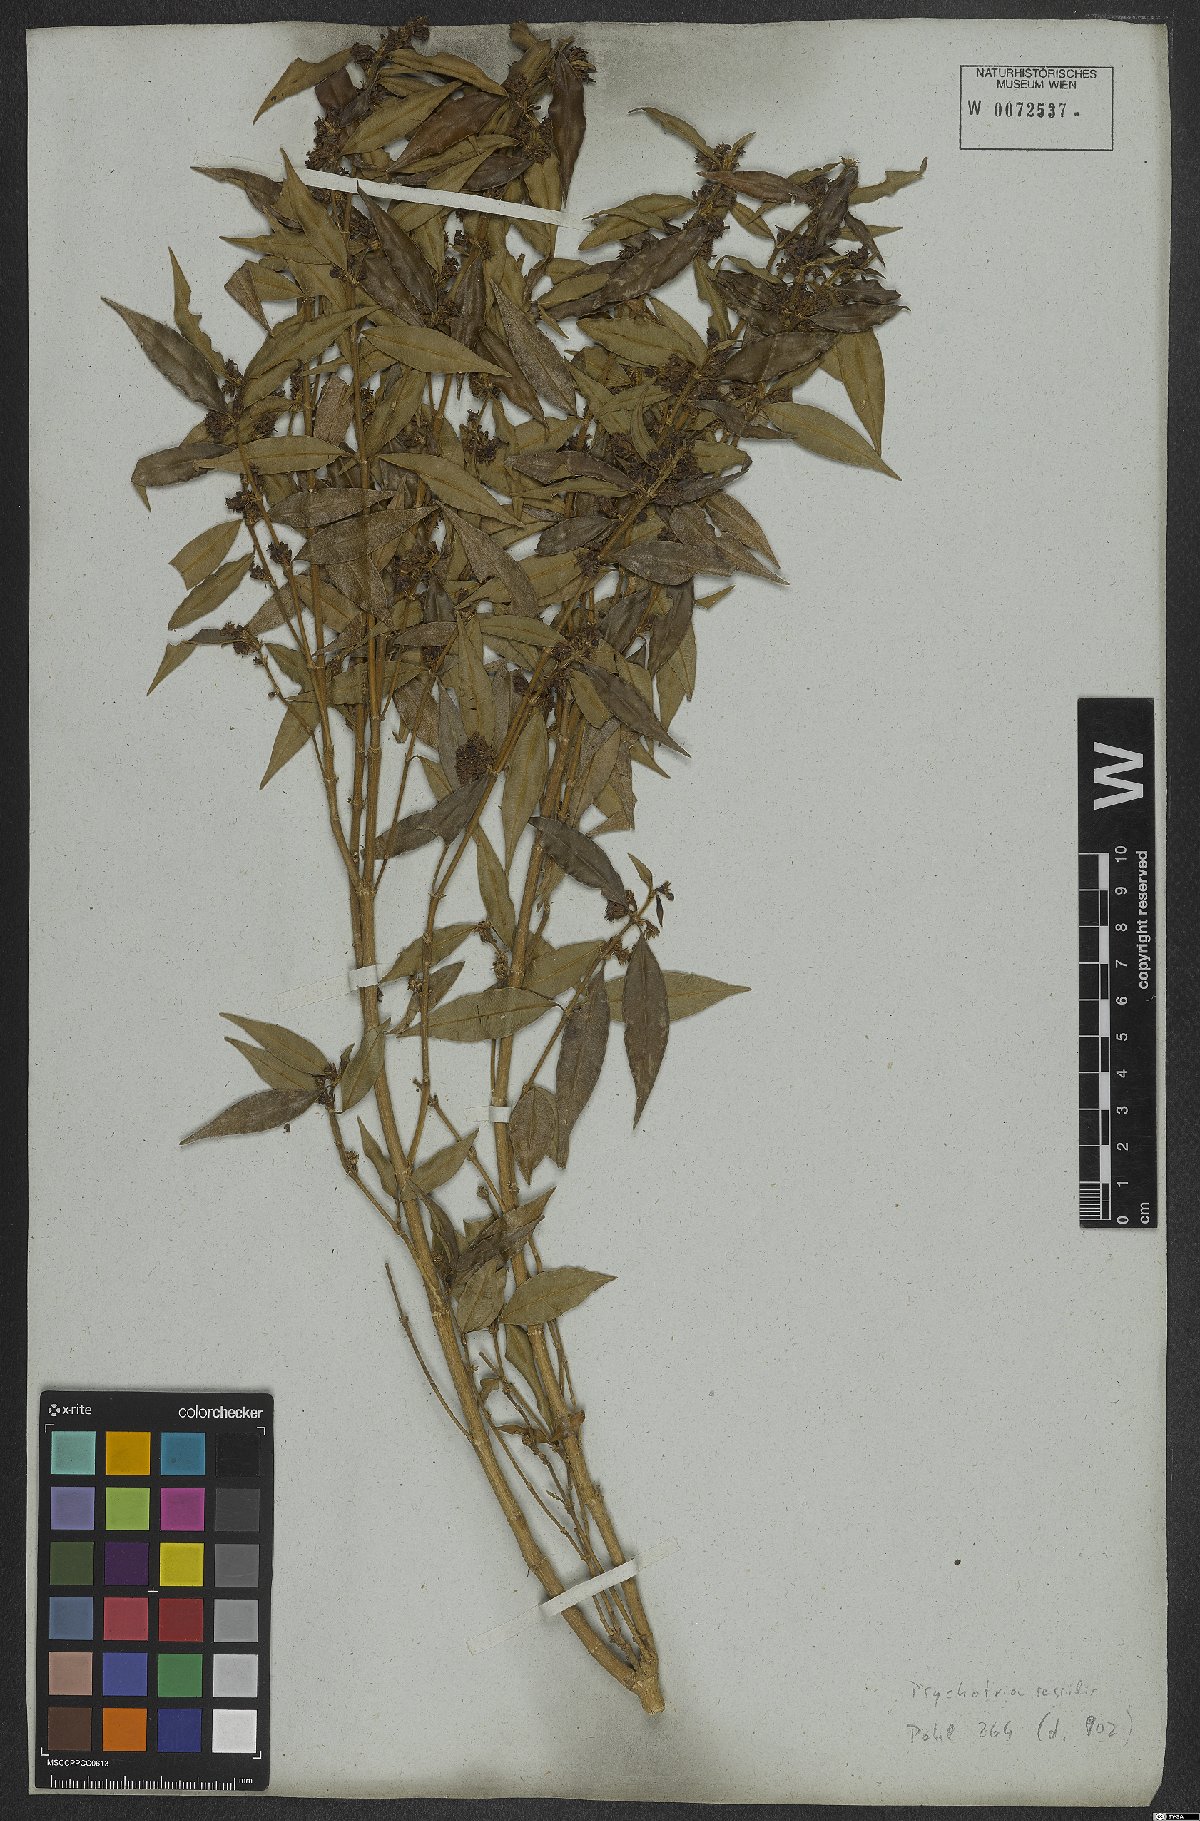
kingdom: Plantae
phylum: Tracheophyta
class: Magnoliopsida
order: Gentianales
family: Rubiaceae
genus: Rudgea
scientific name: Rudgea sessilis
